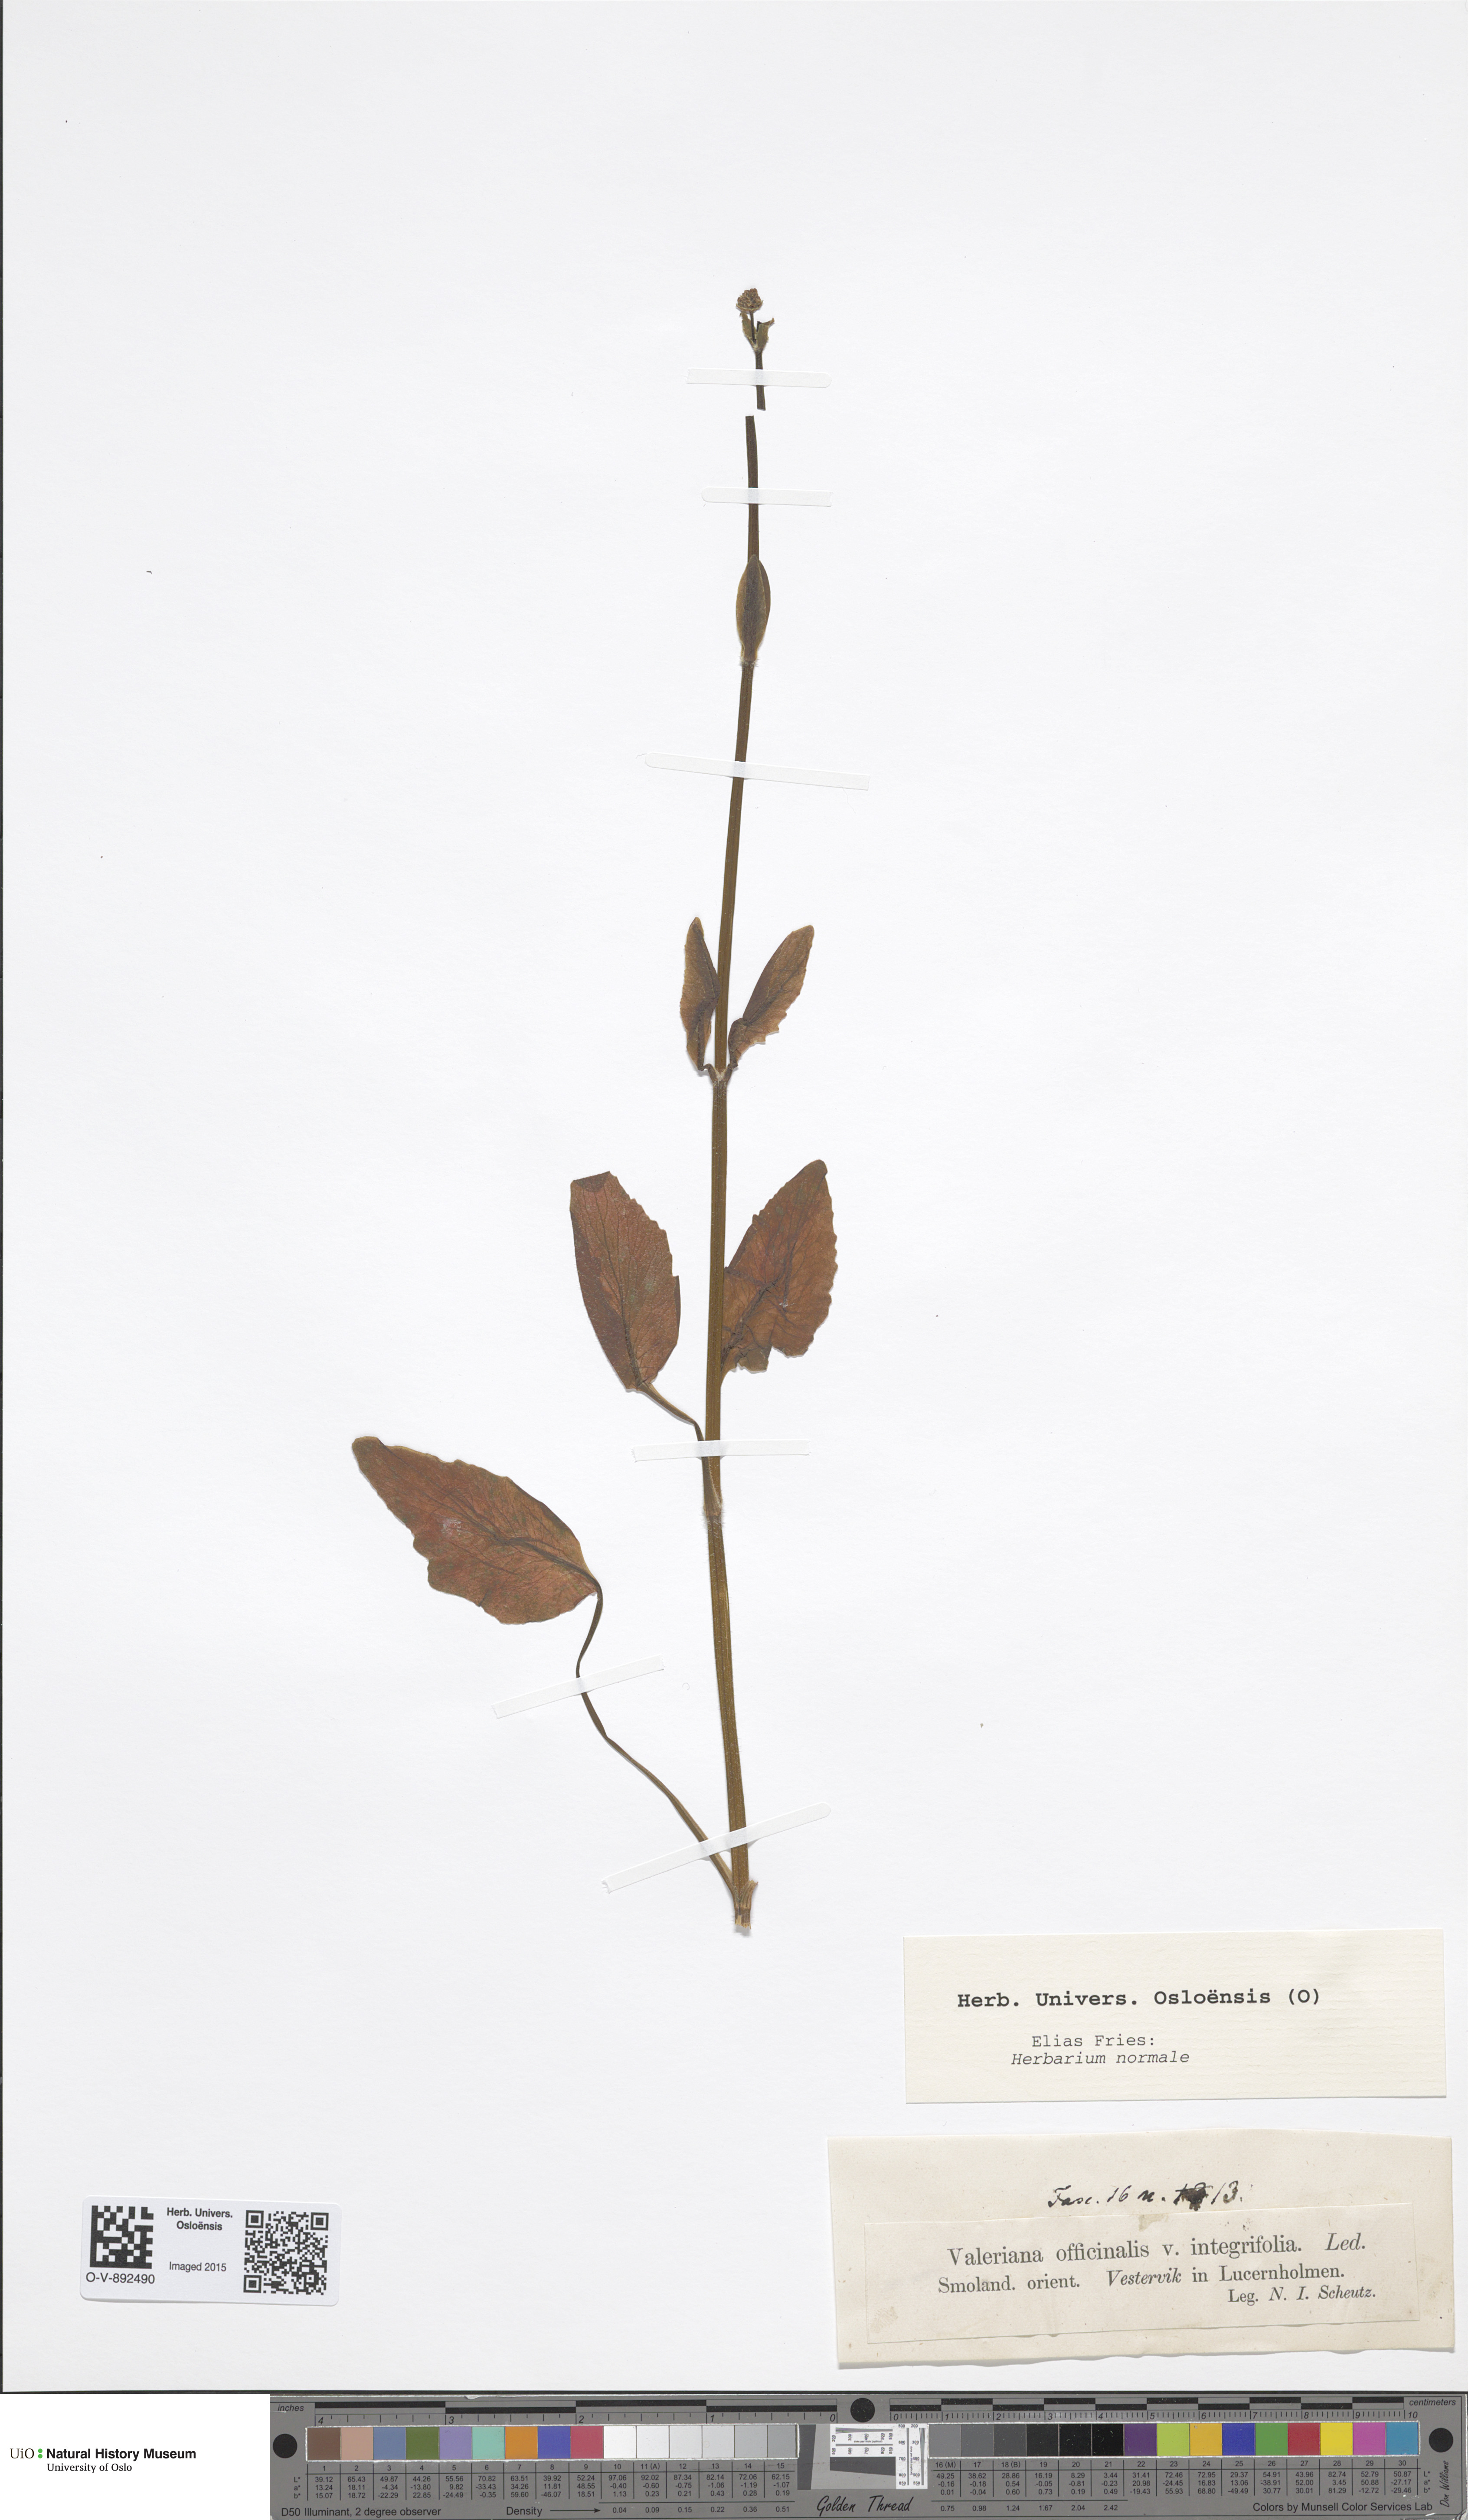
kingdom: Plantae
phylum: Tracheophyta
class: Magnoliopsida
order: Dipsacales
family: Caprifoliaceae
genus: Valeriana
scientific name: Valeriana officinalis
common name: Common valerian
